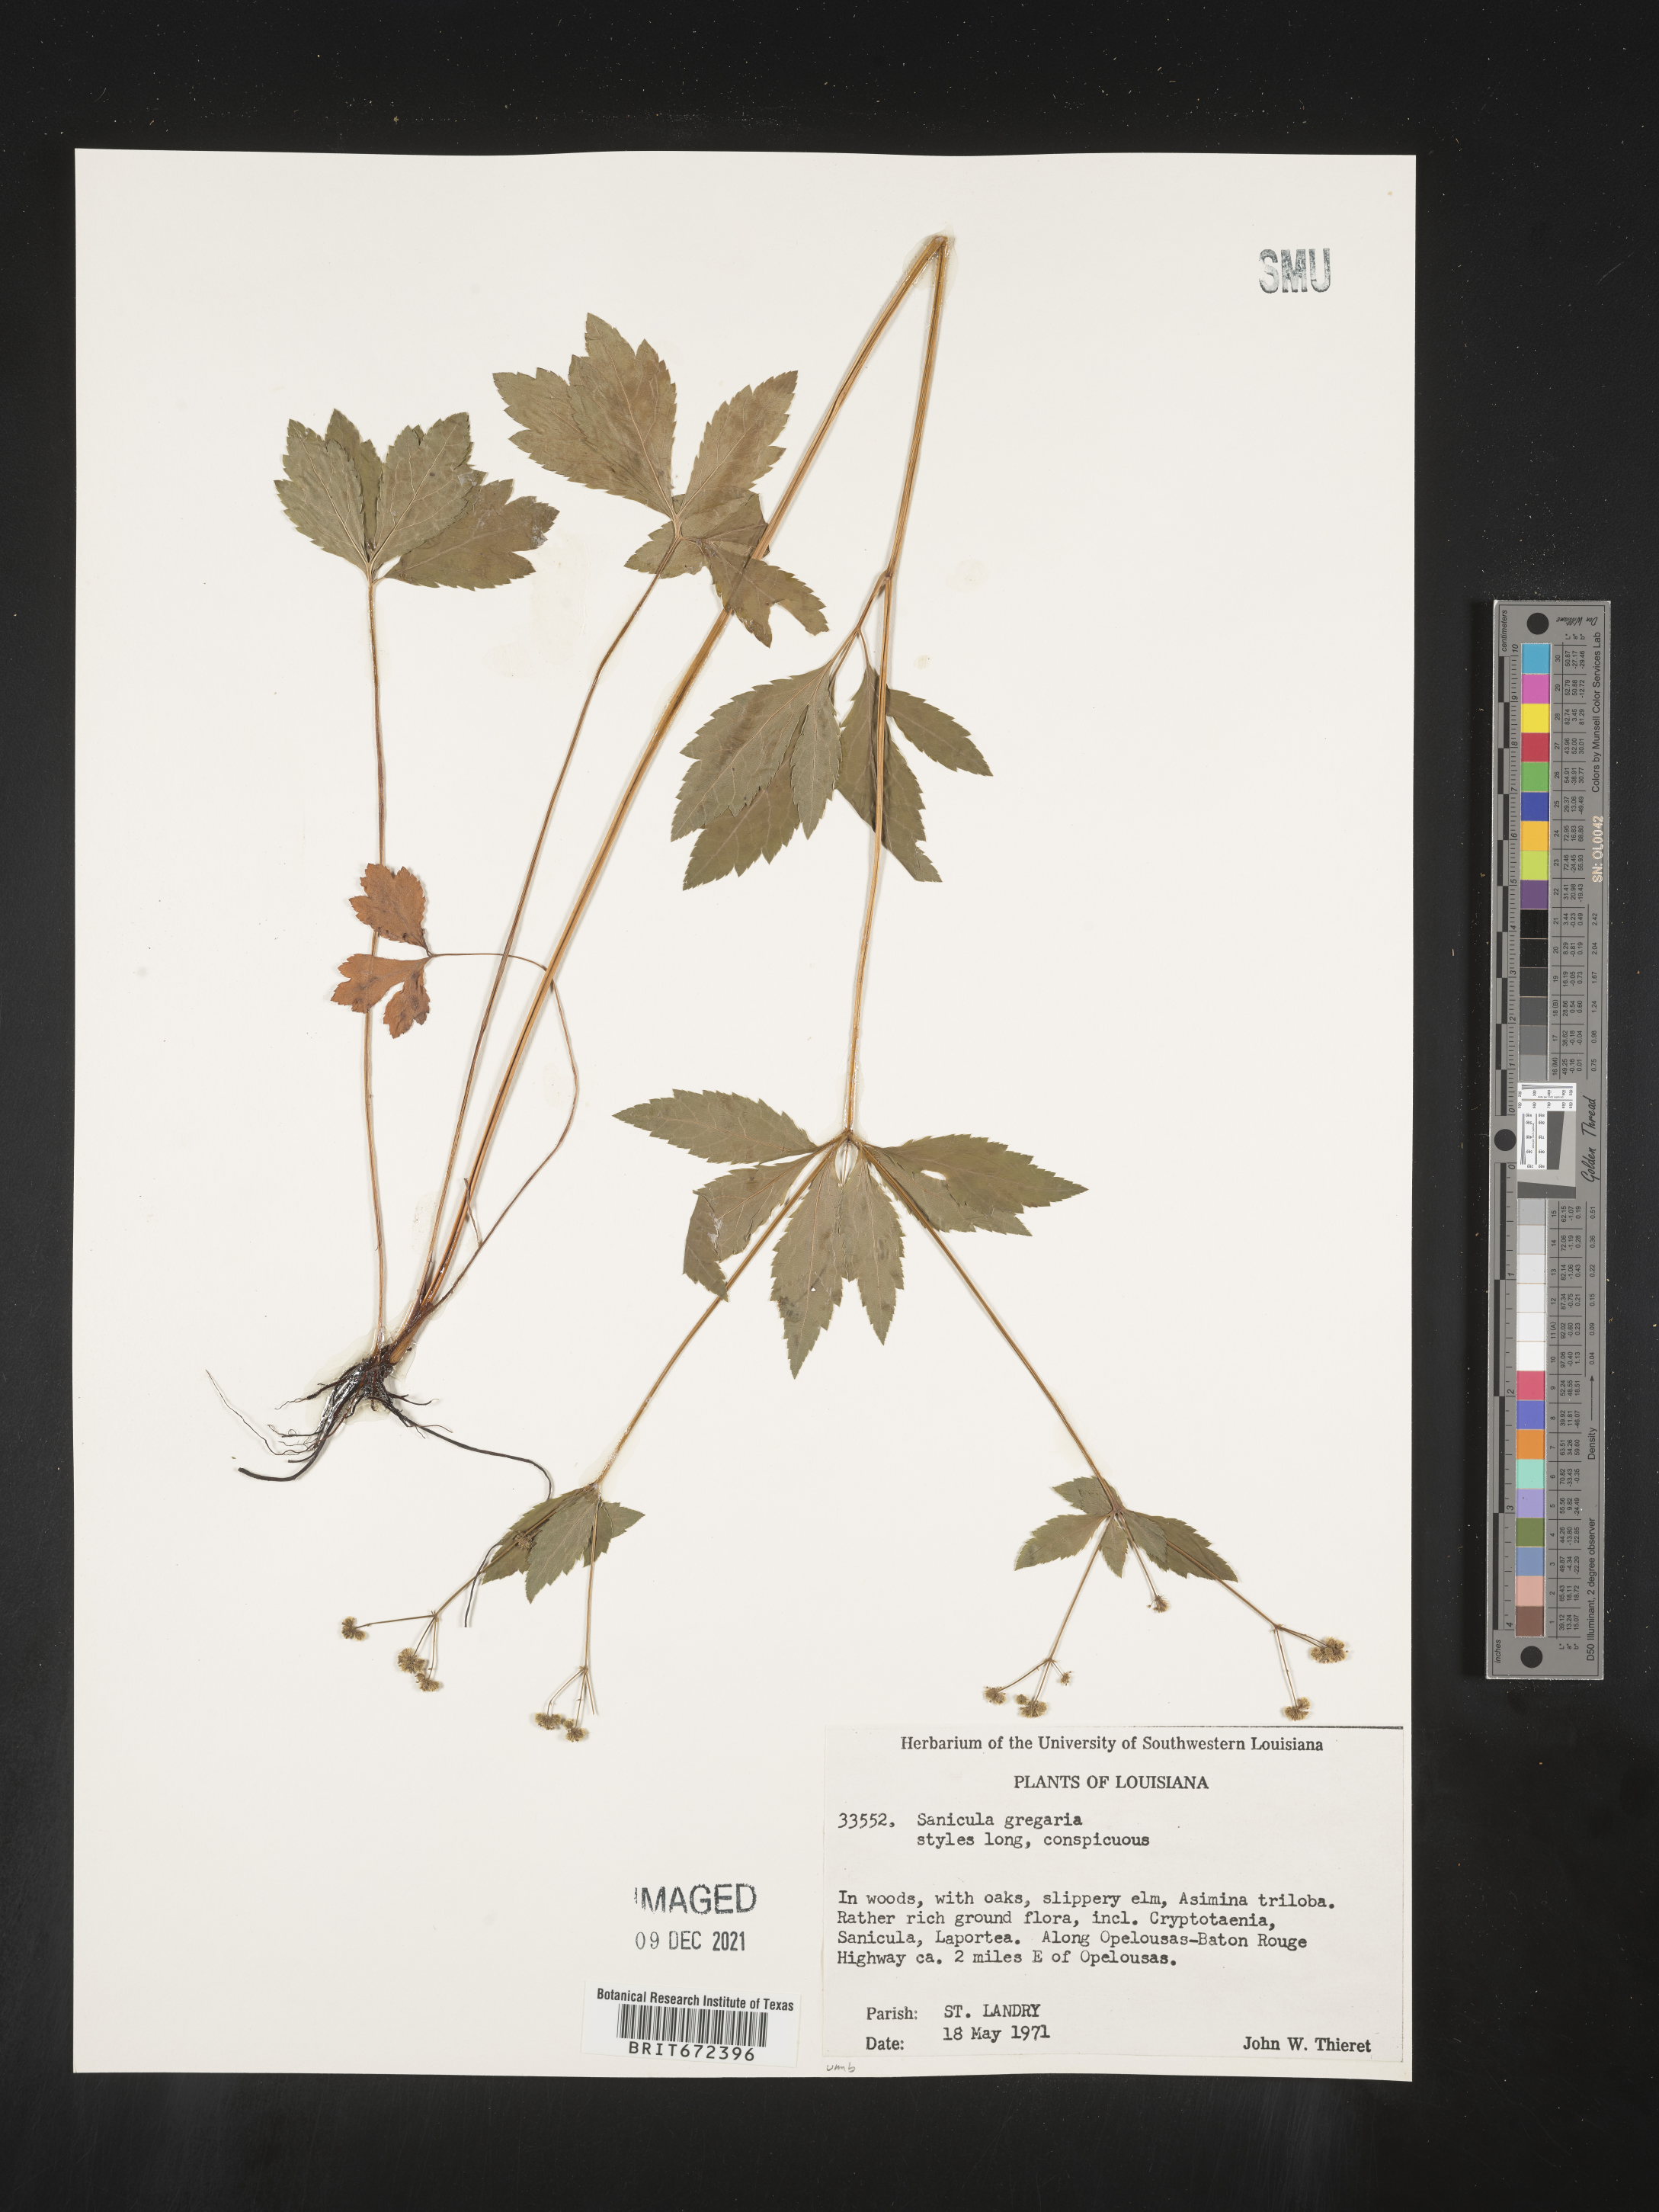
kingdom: Plantae
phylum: Tracheophyta
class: Magnoliopsida
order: Apiales
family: Apiaceae
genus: Sanicula
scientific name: Sanicula odorata
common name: Cluster sanicle
